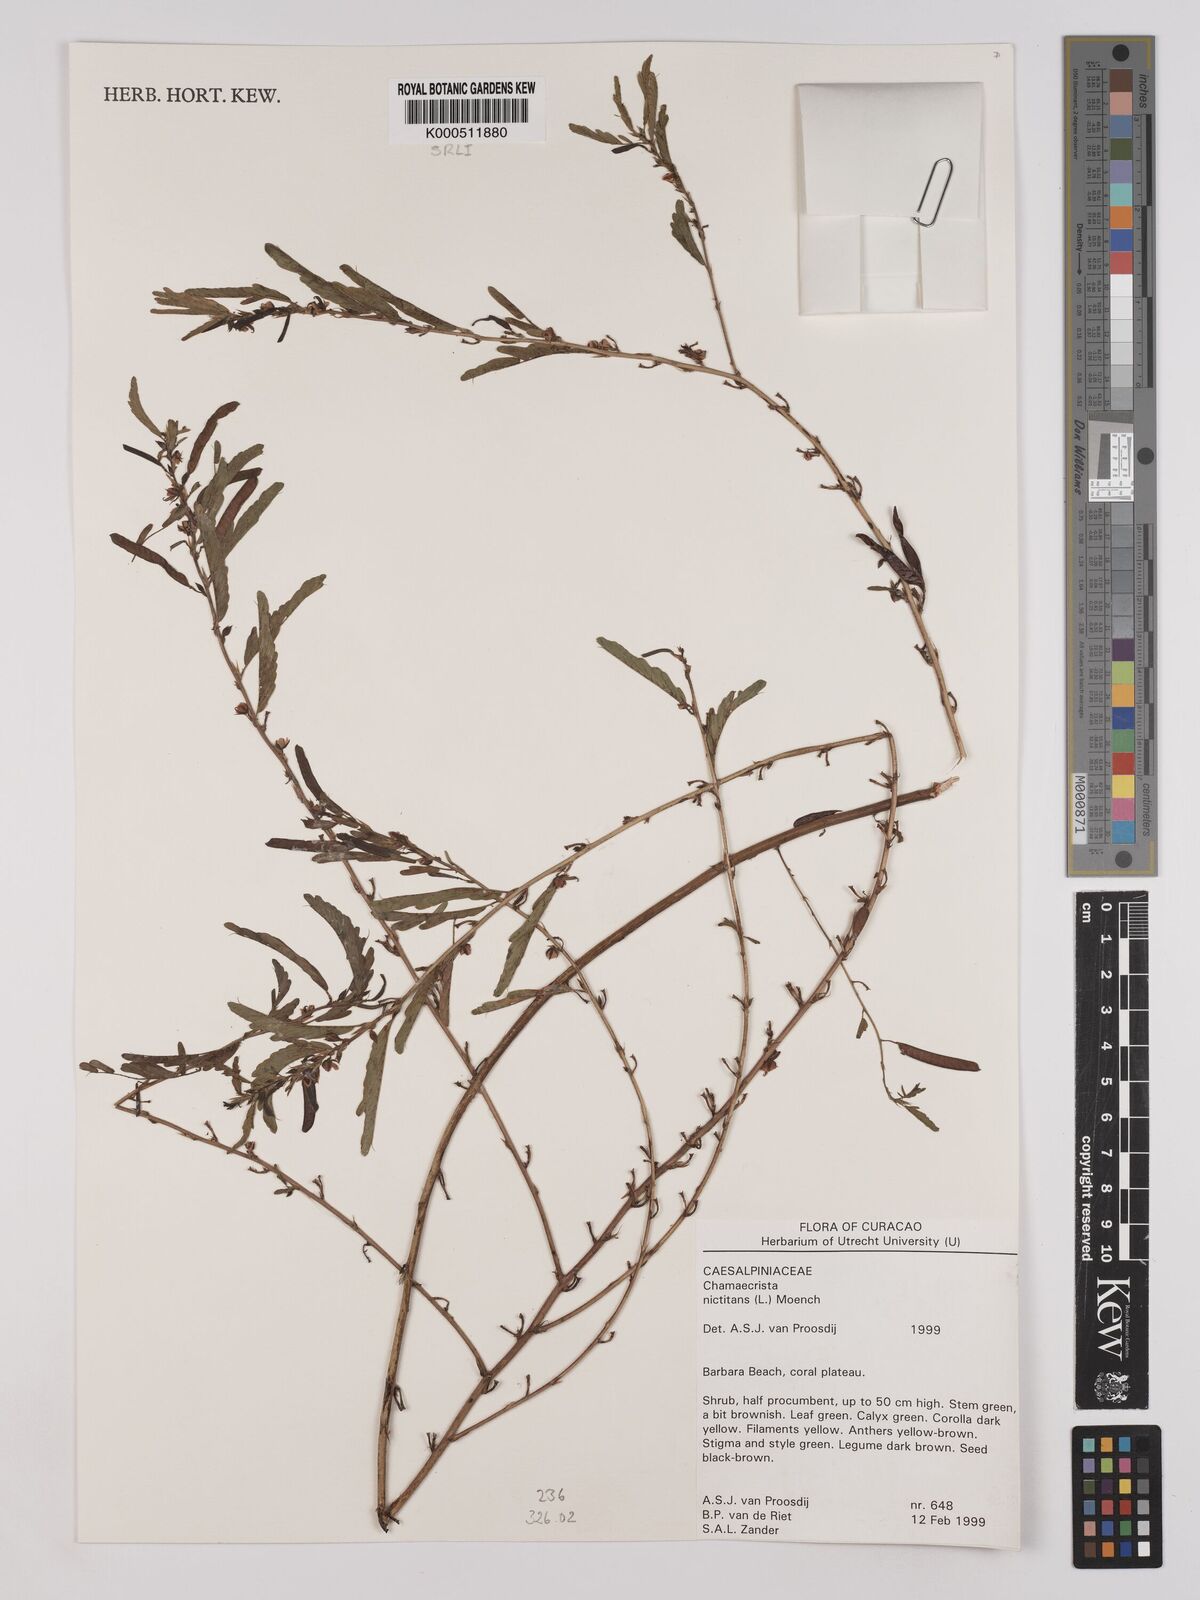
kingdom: Plantae
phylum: Tracheophyta
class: Magnoliopsida
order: Fabales
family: Fabaceae
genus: Chamaecrista
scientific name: Chamaecrista nictitans
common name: Sensitive cassia
